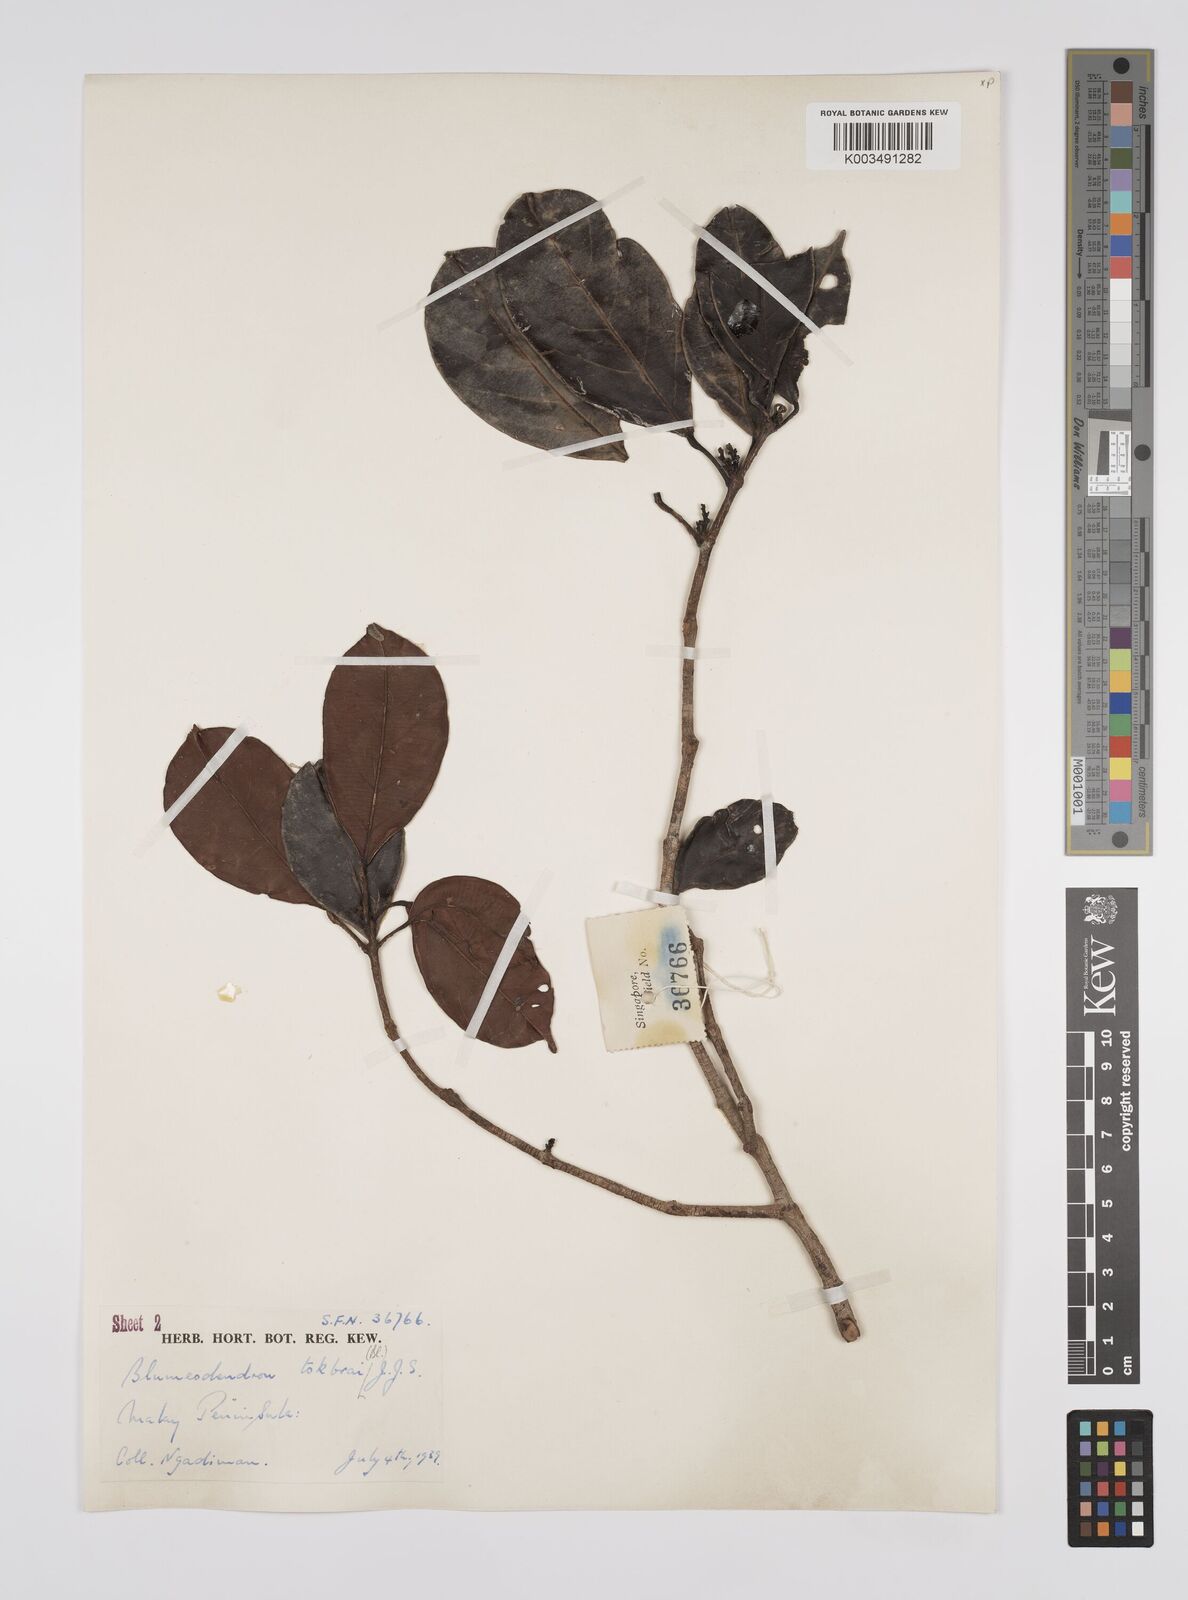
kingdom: Plantae
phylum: Tracheophyta
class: Magnoliopsida
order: Malpighiales
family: Euphorbiaceae
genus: Blumeodendron
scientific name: Blumeodendron tokbrai
